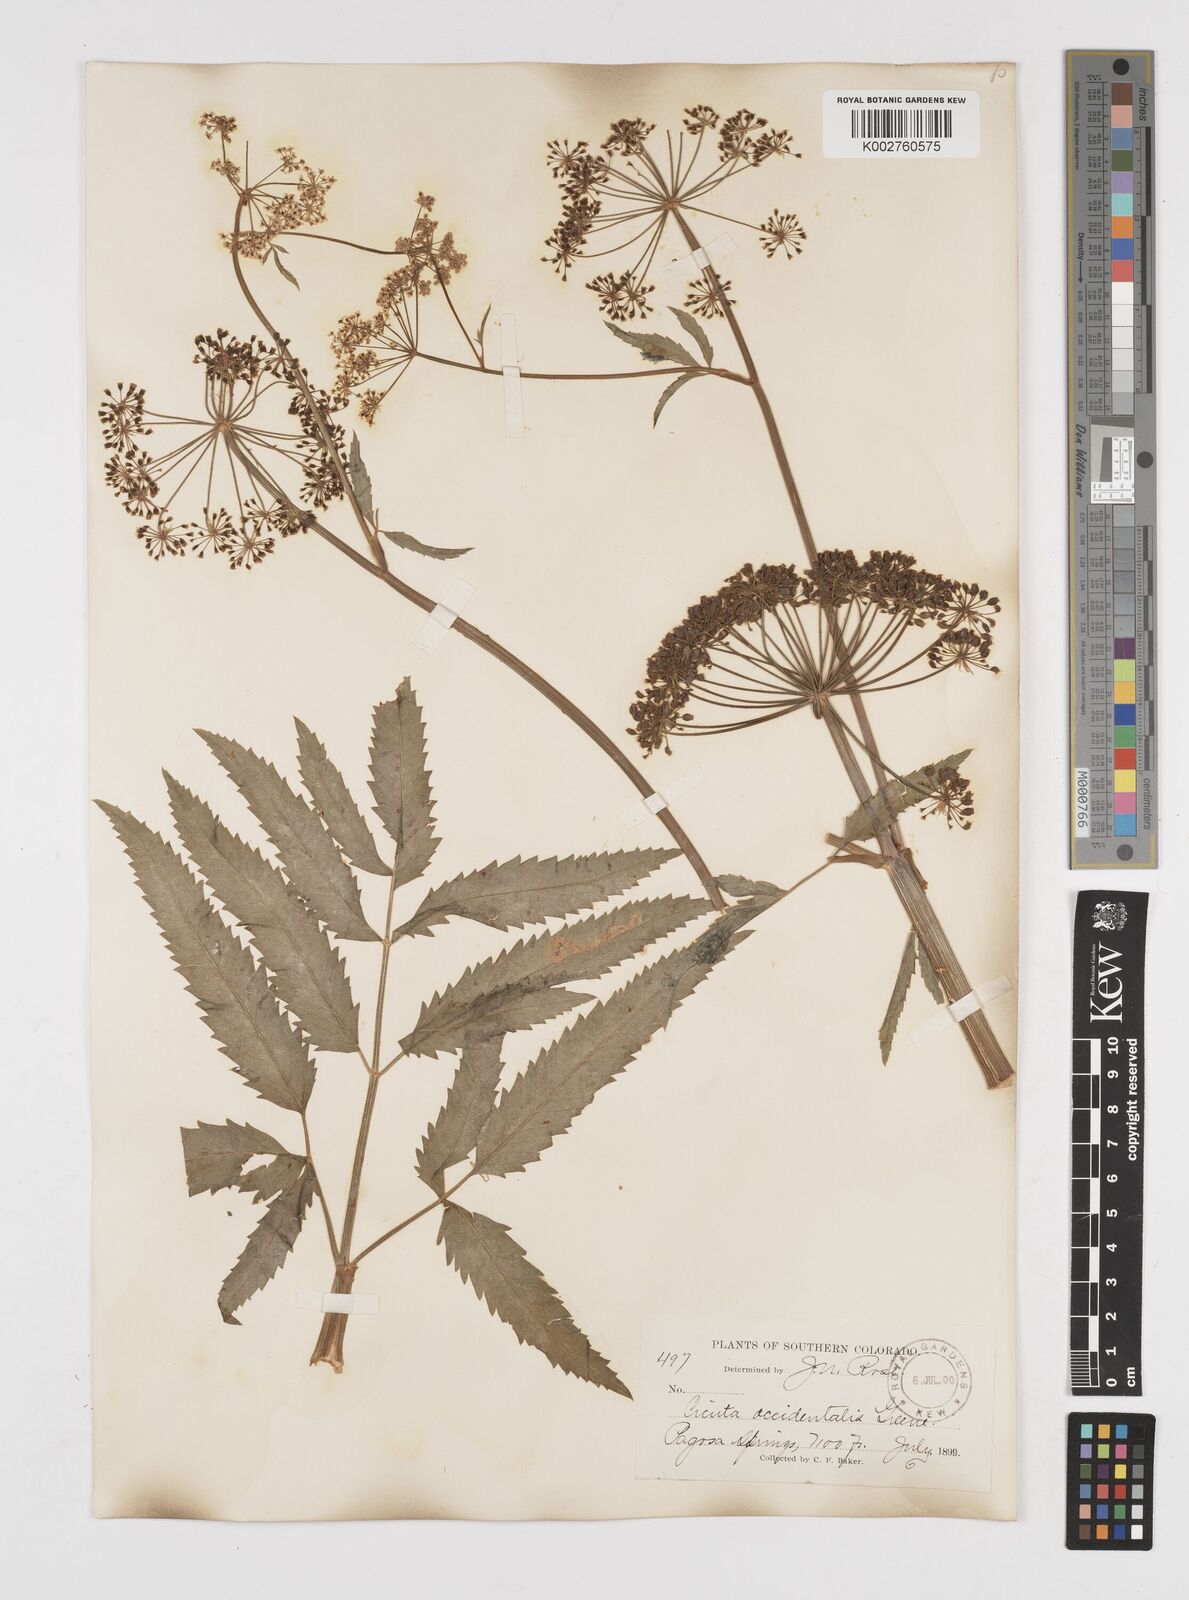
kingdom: Plantae
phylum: Tracheophyta
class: Magnoliopsida
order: Apiales
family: Apiaceae
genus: Cicuta
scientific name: Cicuta douglasii
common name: Western water-hemlock
